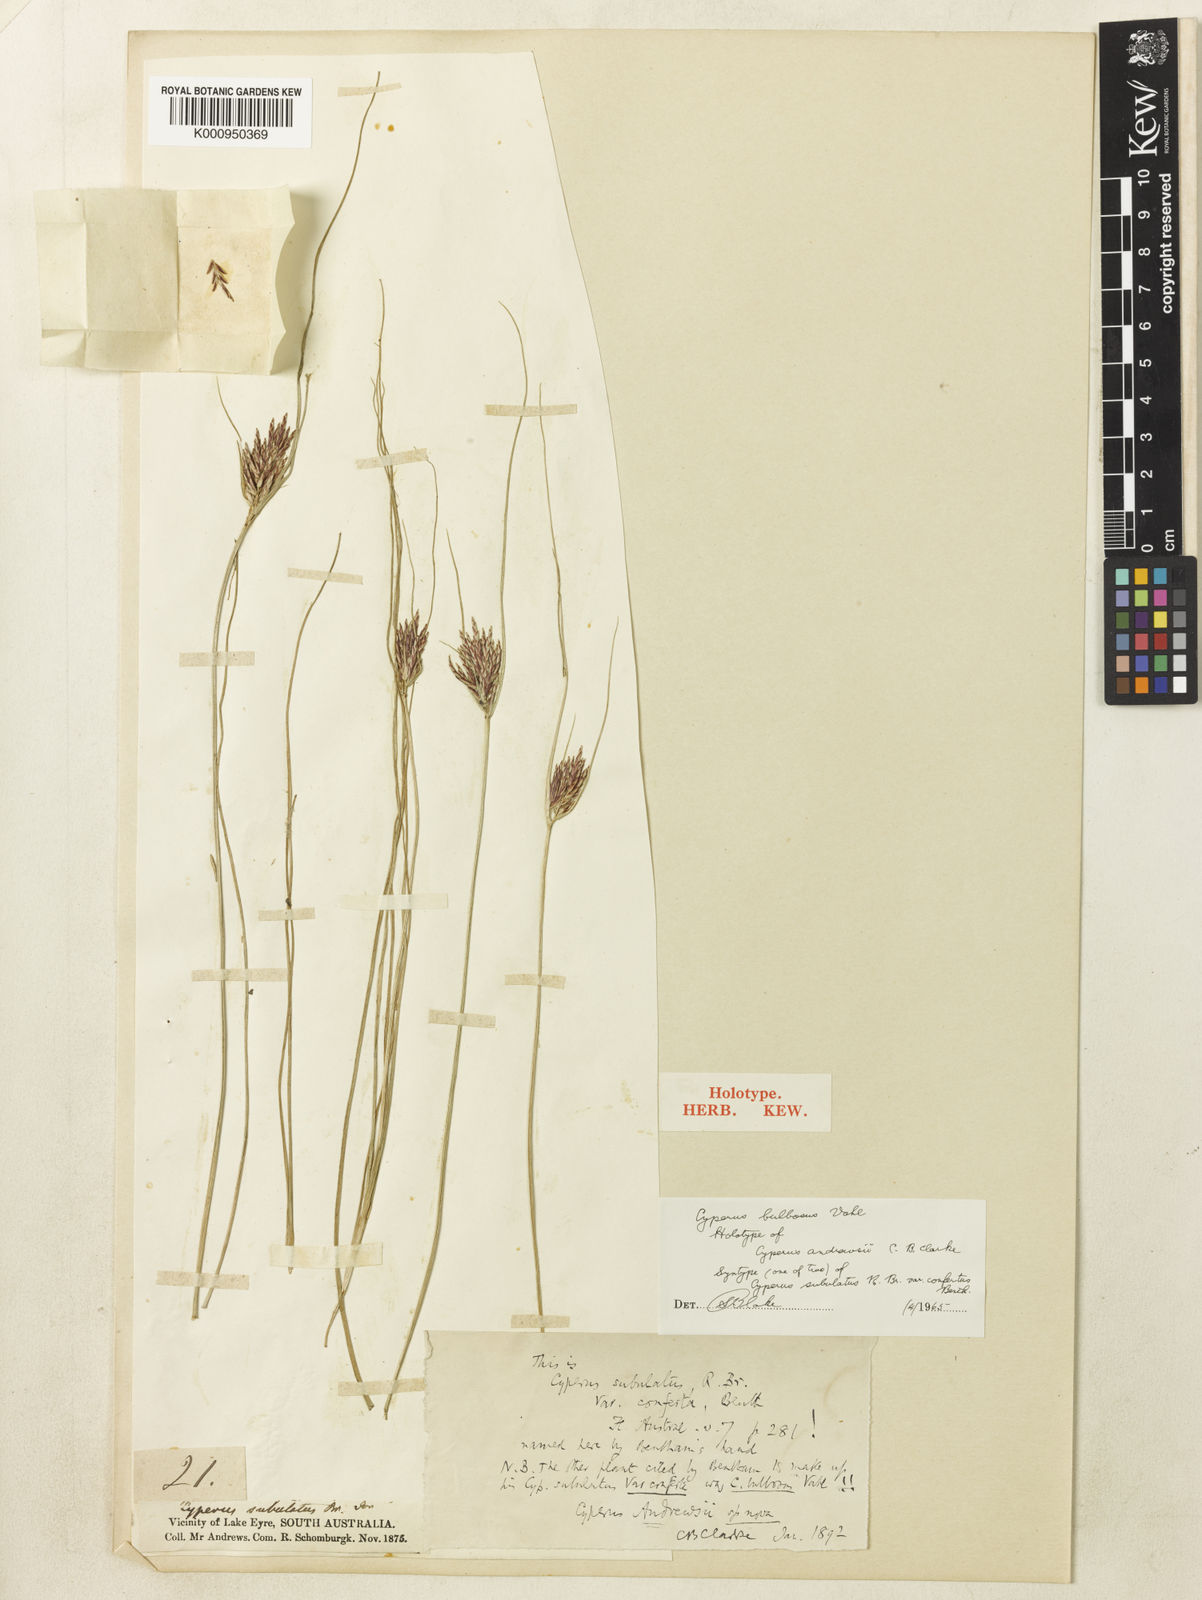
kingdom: Plantae
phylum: Tracheophyta
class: Liliopsida
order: Poales
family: Cyperaceae
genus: Cyperus
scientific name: Cyperus bulbosus
